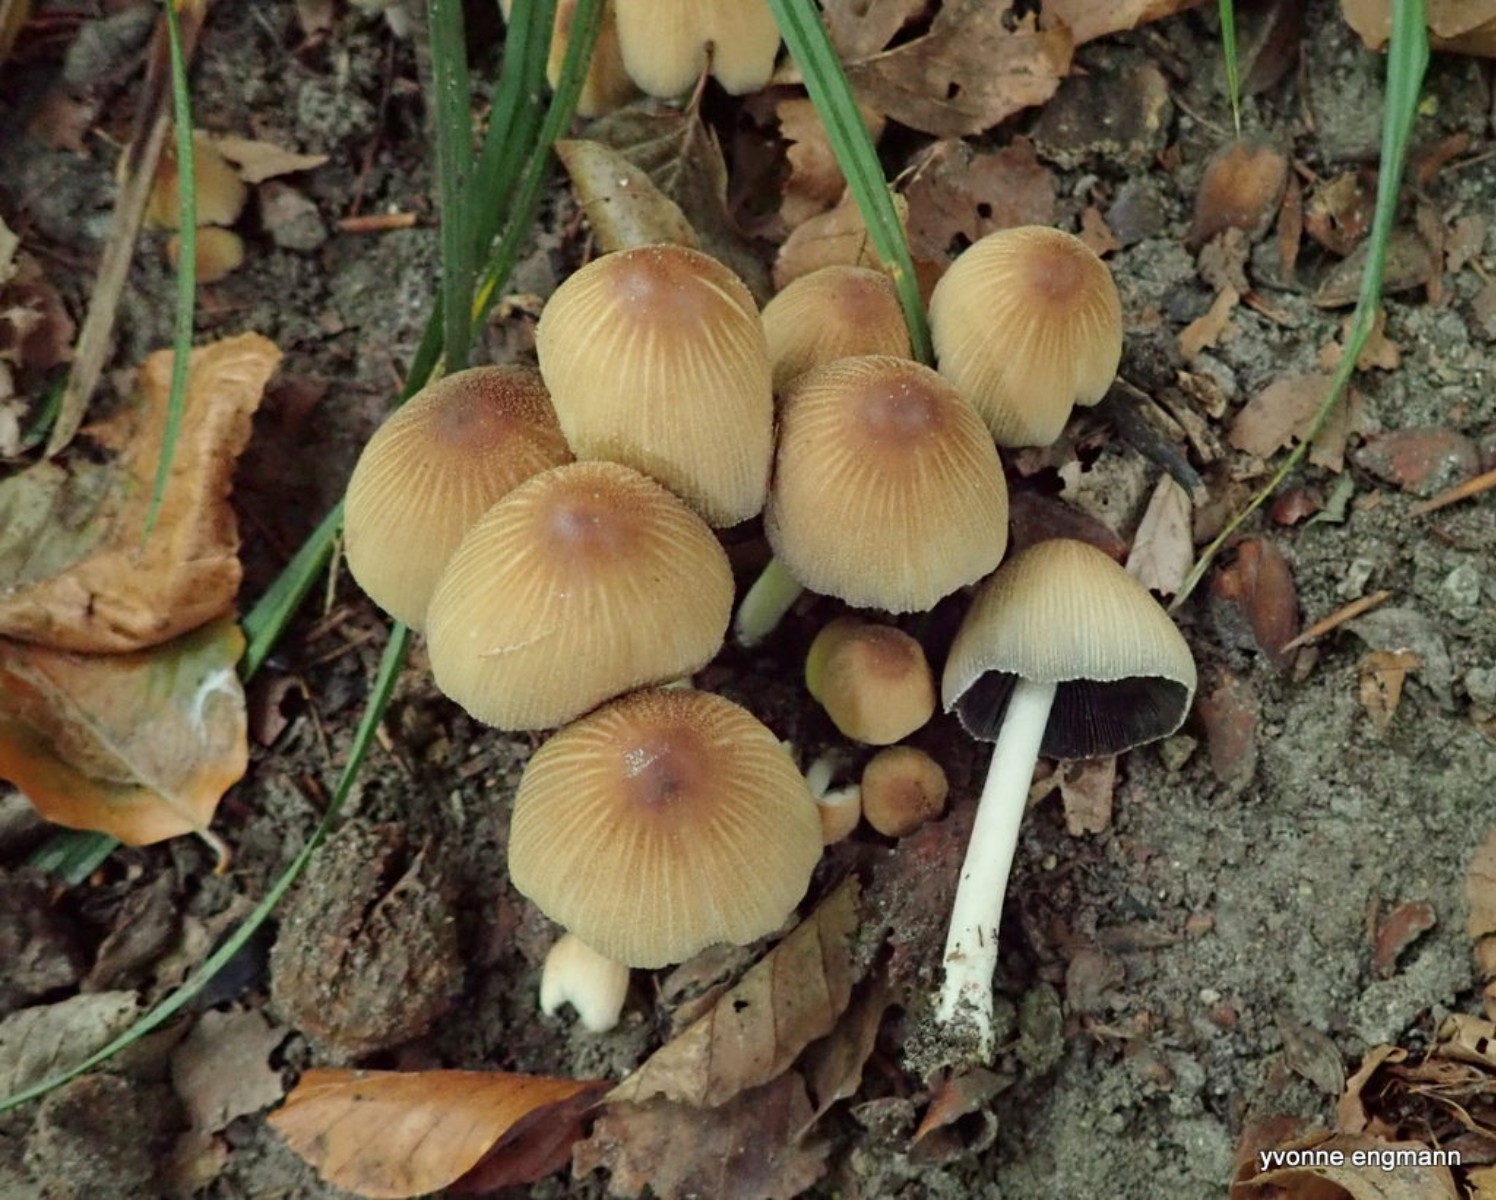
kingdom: Fungi
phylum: Basidiomycota
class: Agaricomycetes
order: Agaricales
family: Psathyrellaceae
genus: Coprinellus
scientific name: Coprinellus micaceus
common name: glimmer-blækhat
